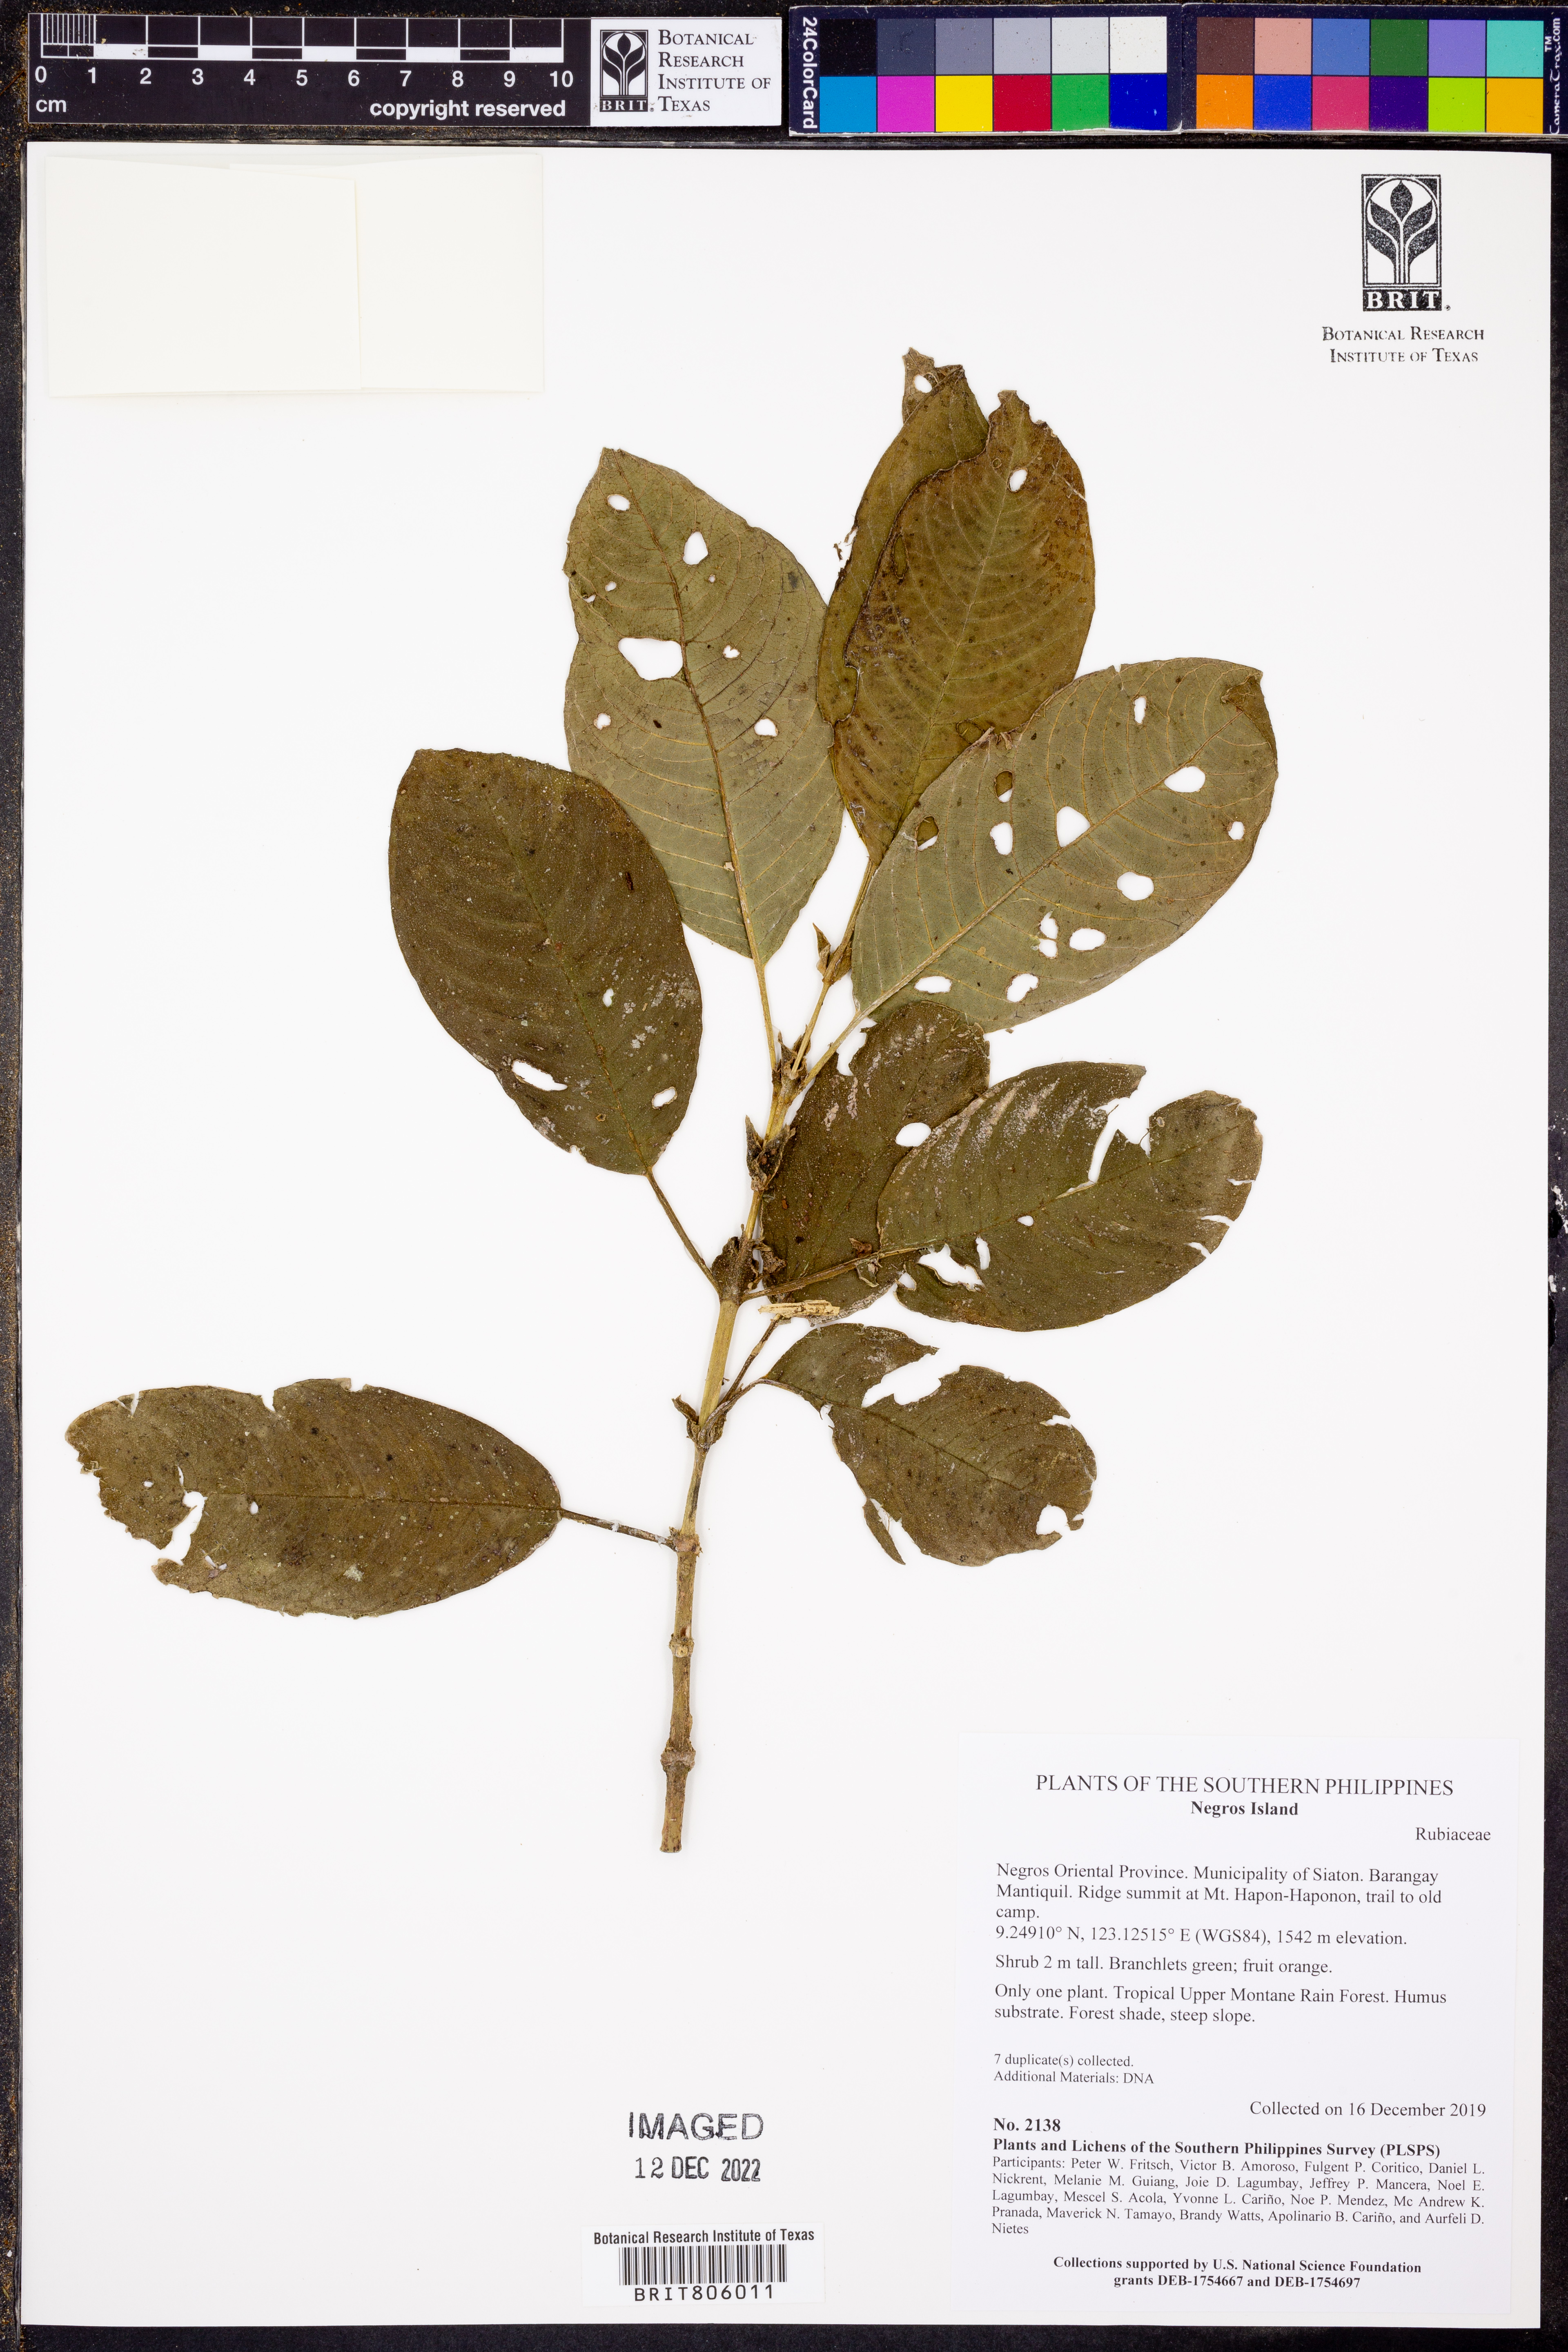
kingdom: Plantae
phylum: Tracheophyta
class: Magnoliopsida
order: Gentianales
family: Rubiaceae
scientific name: Rubiaceae
